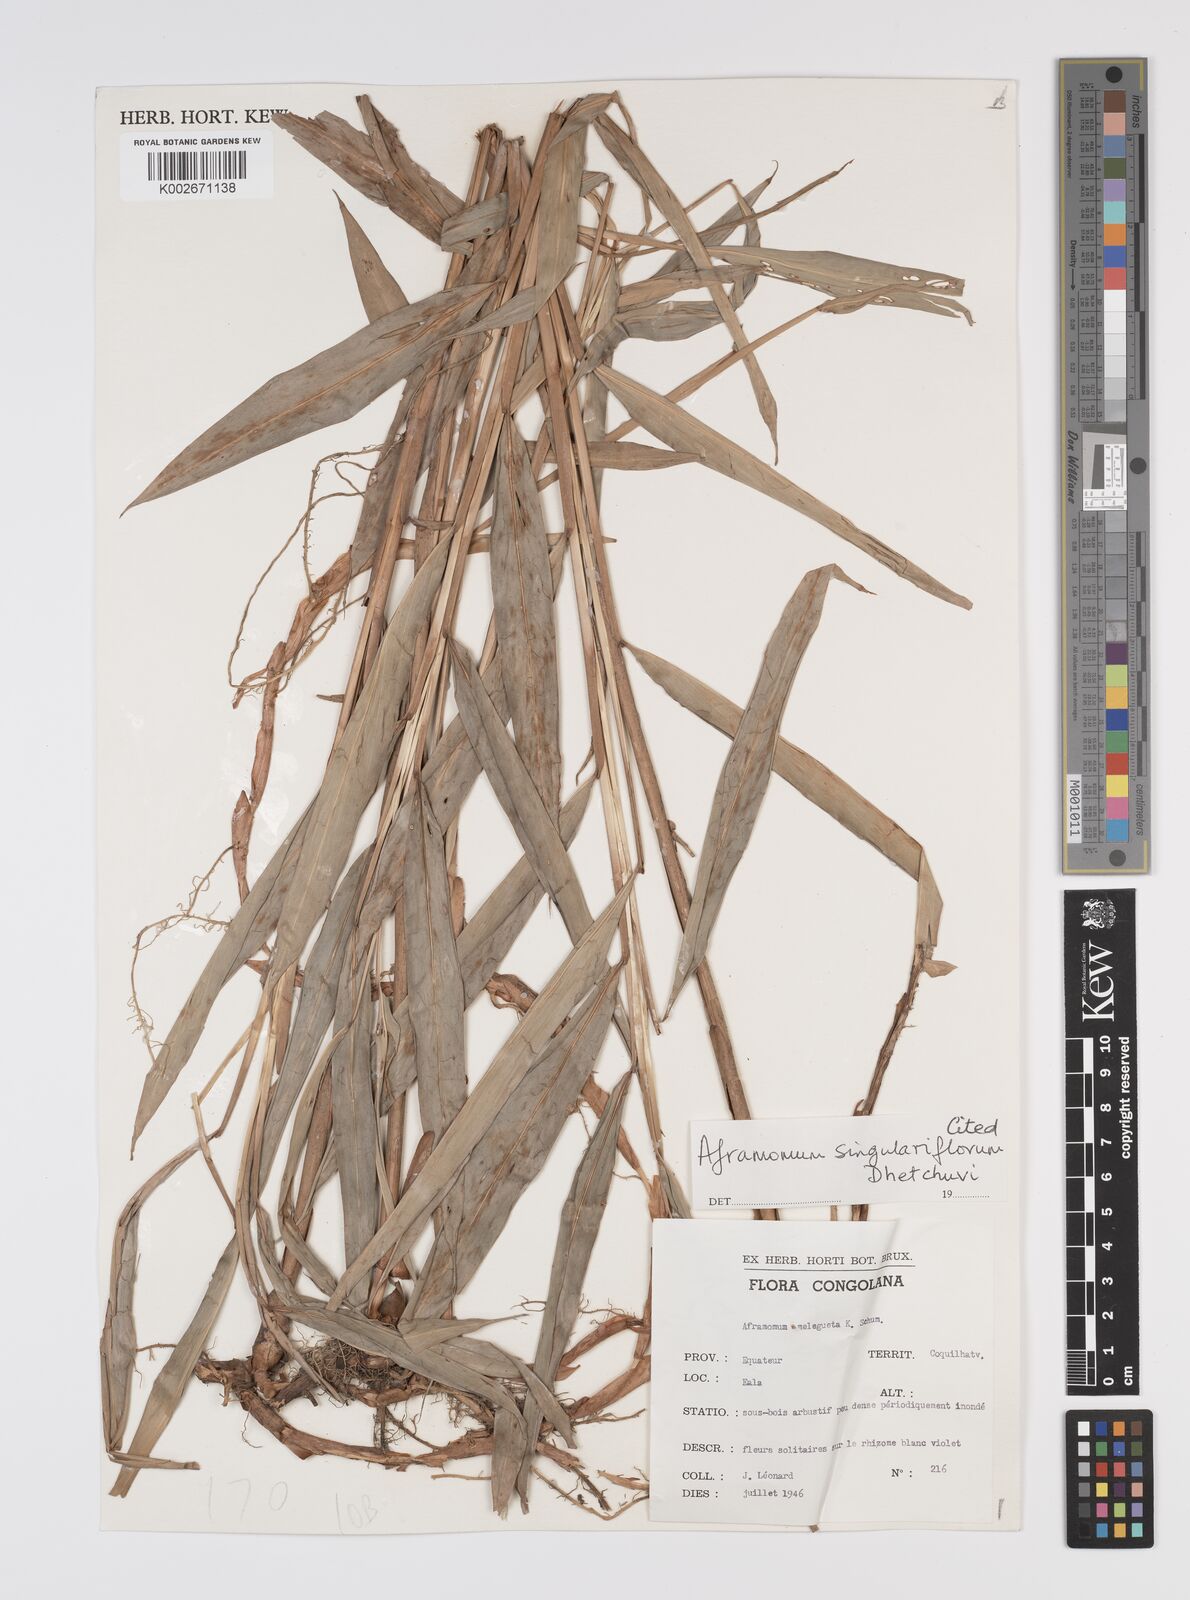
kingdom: Plantae
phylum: Tracheophyta
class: Liliopsida
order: Zingiberales
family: Zingiberaceae
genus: Aframomum
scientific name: Aframomum singulariflorum
